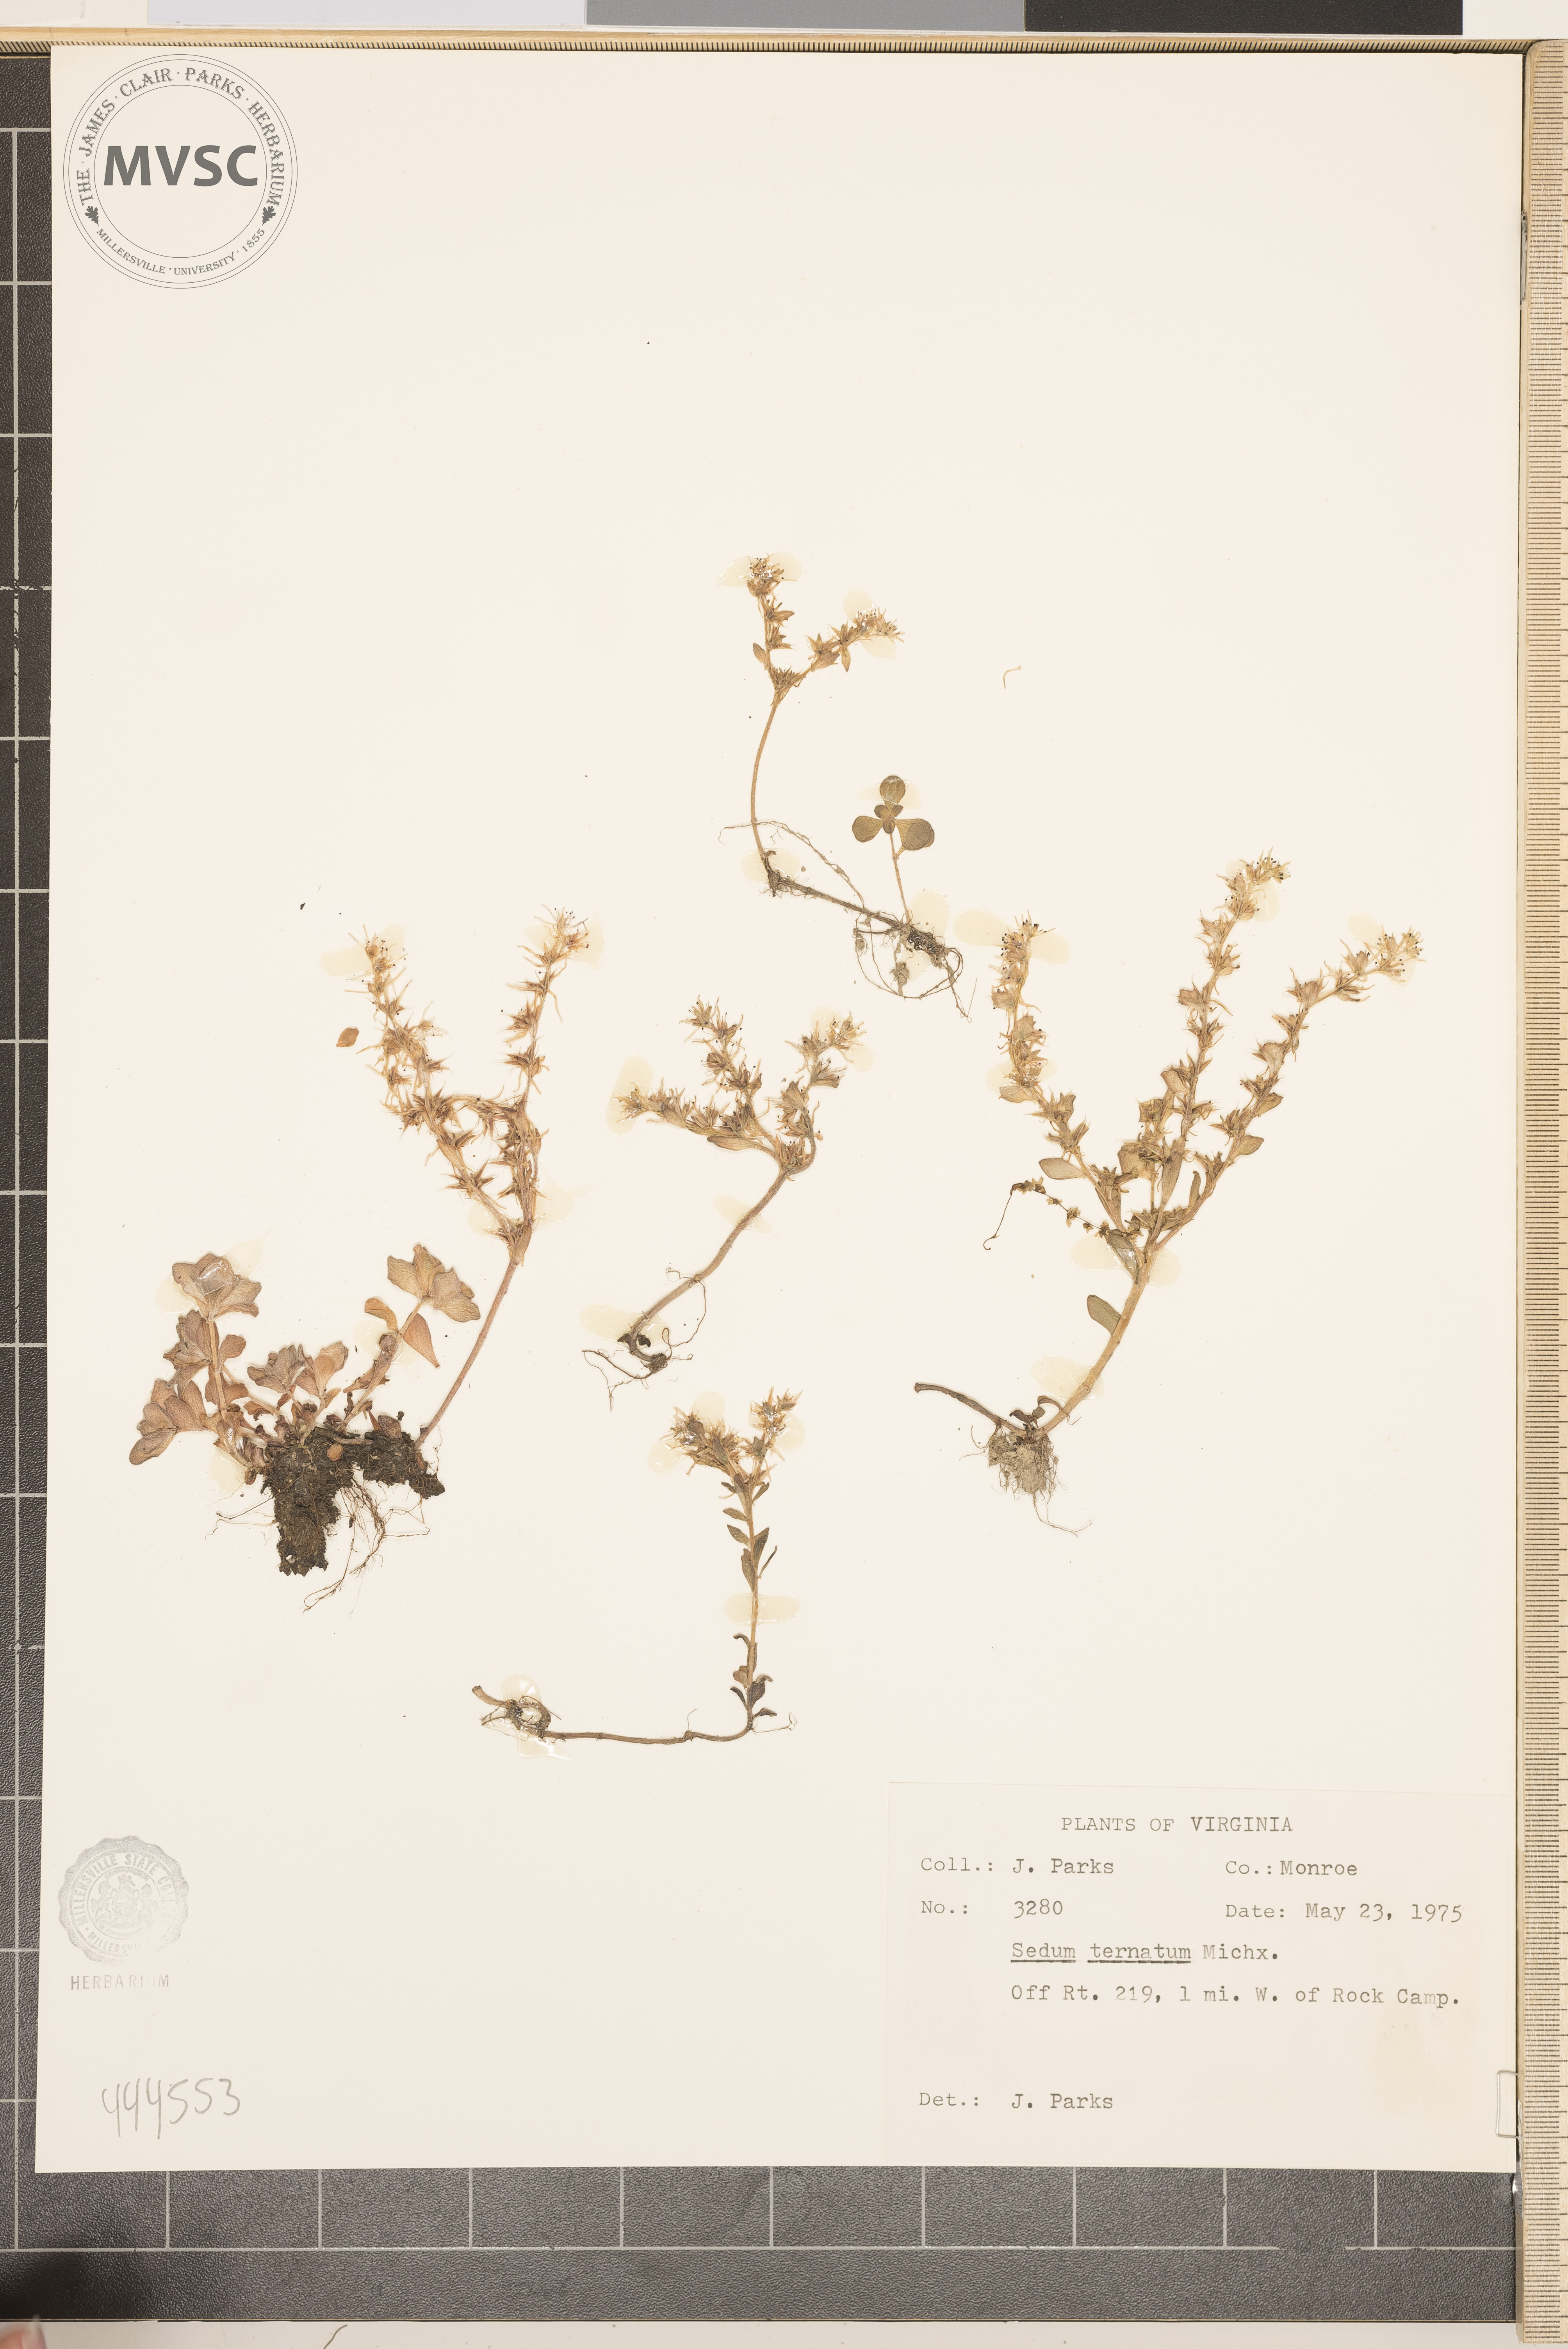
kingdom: Plantae
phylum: Tracheophyta
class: Magnoliopsida
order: Saxifragales
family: Crassulaceae
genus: Sedum
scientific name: Sedum ternatum
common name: Wild stonecrop
